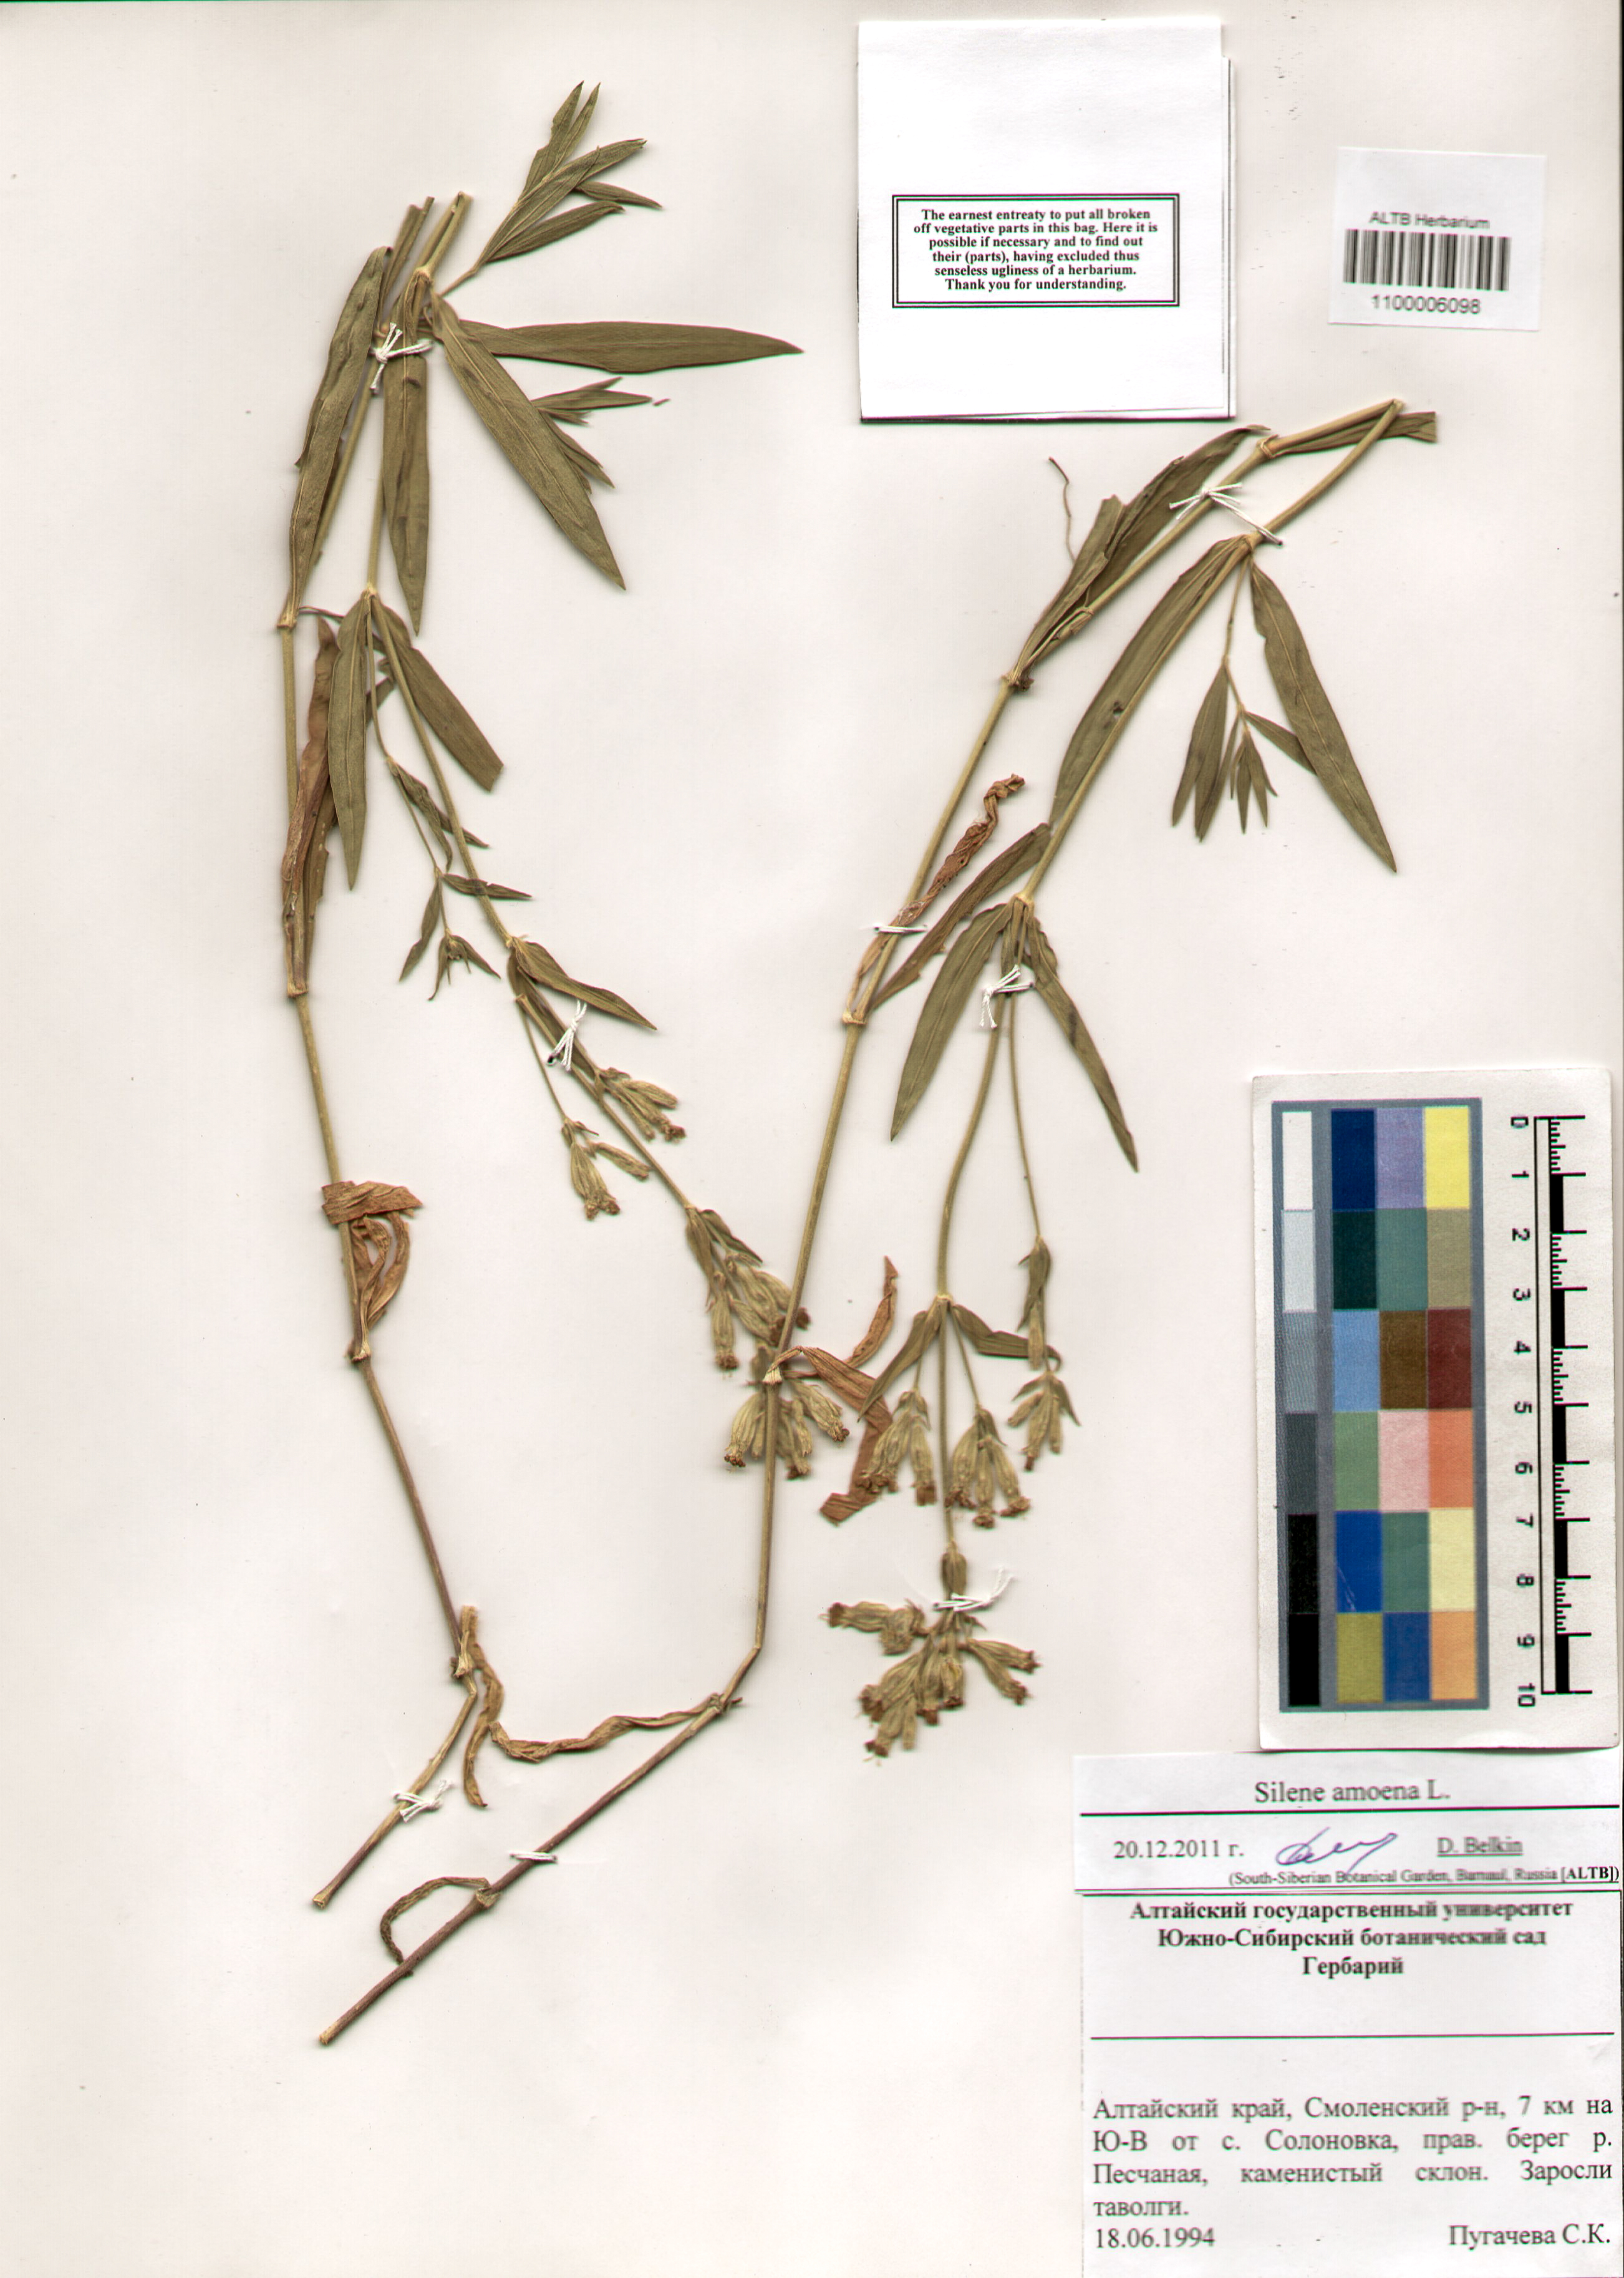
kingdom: Plantae
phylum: Tracheophyta
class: Magnoliopsida
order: Caryophyllales
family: Caryophyllaceae
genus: Silene
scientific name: Silene amoena
